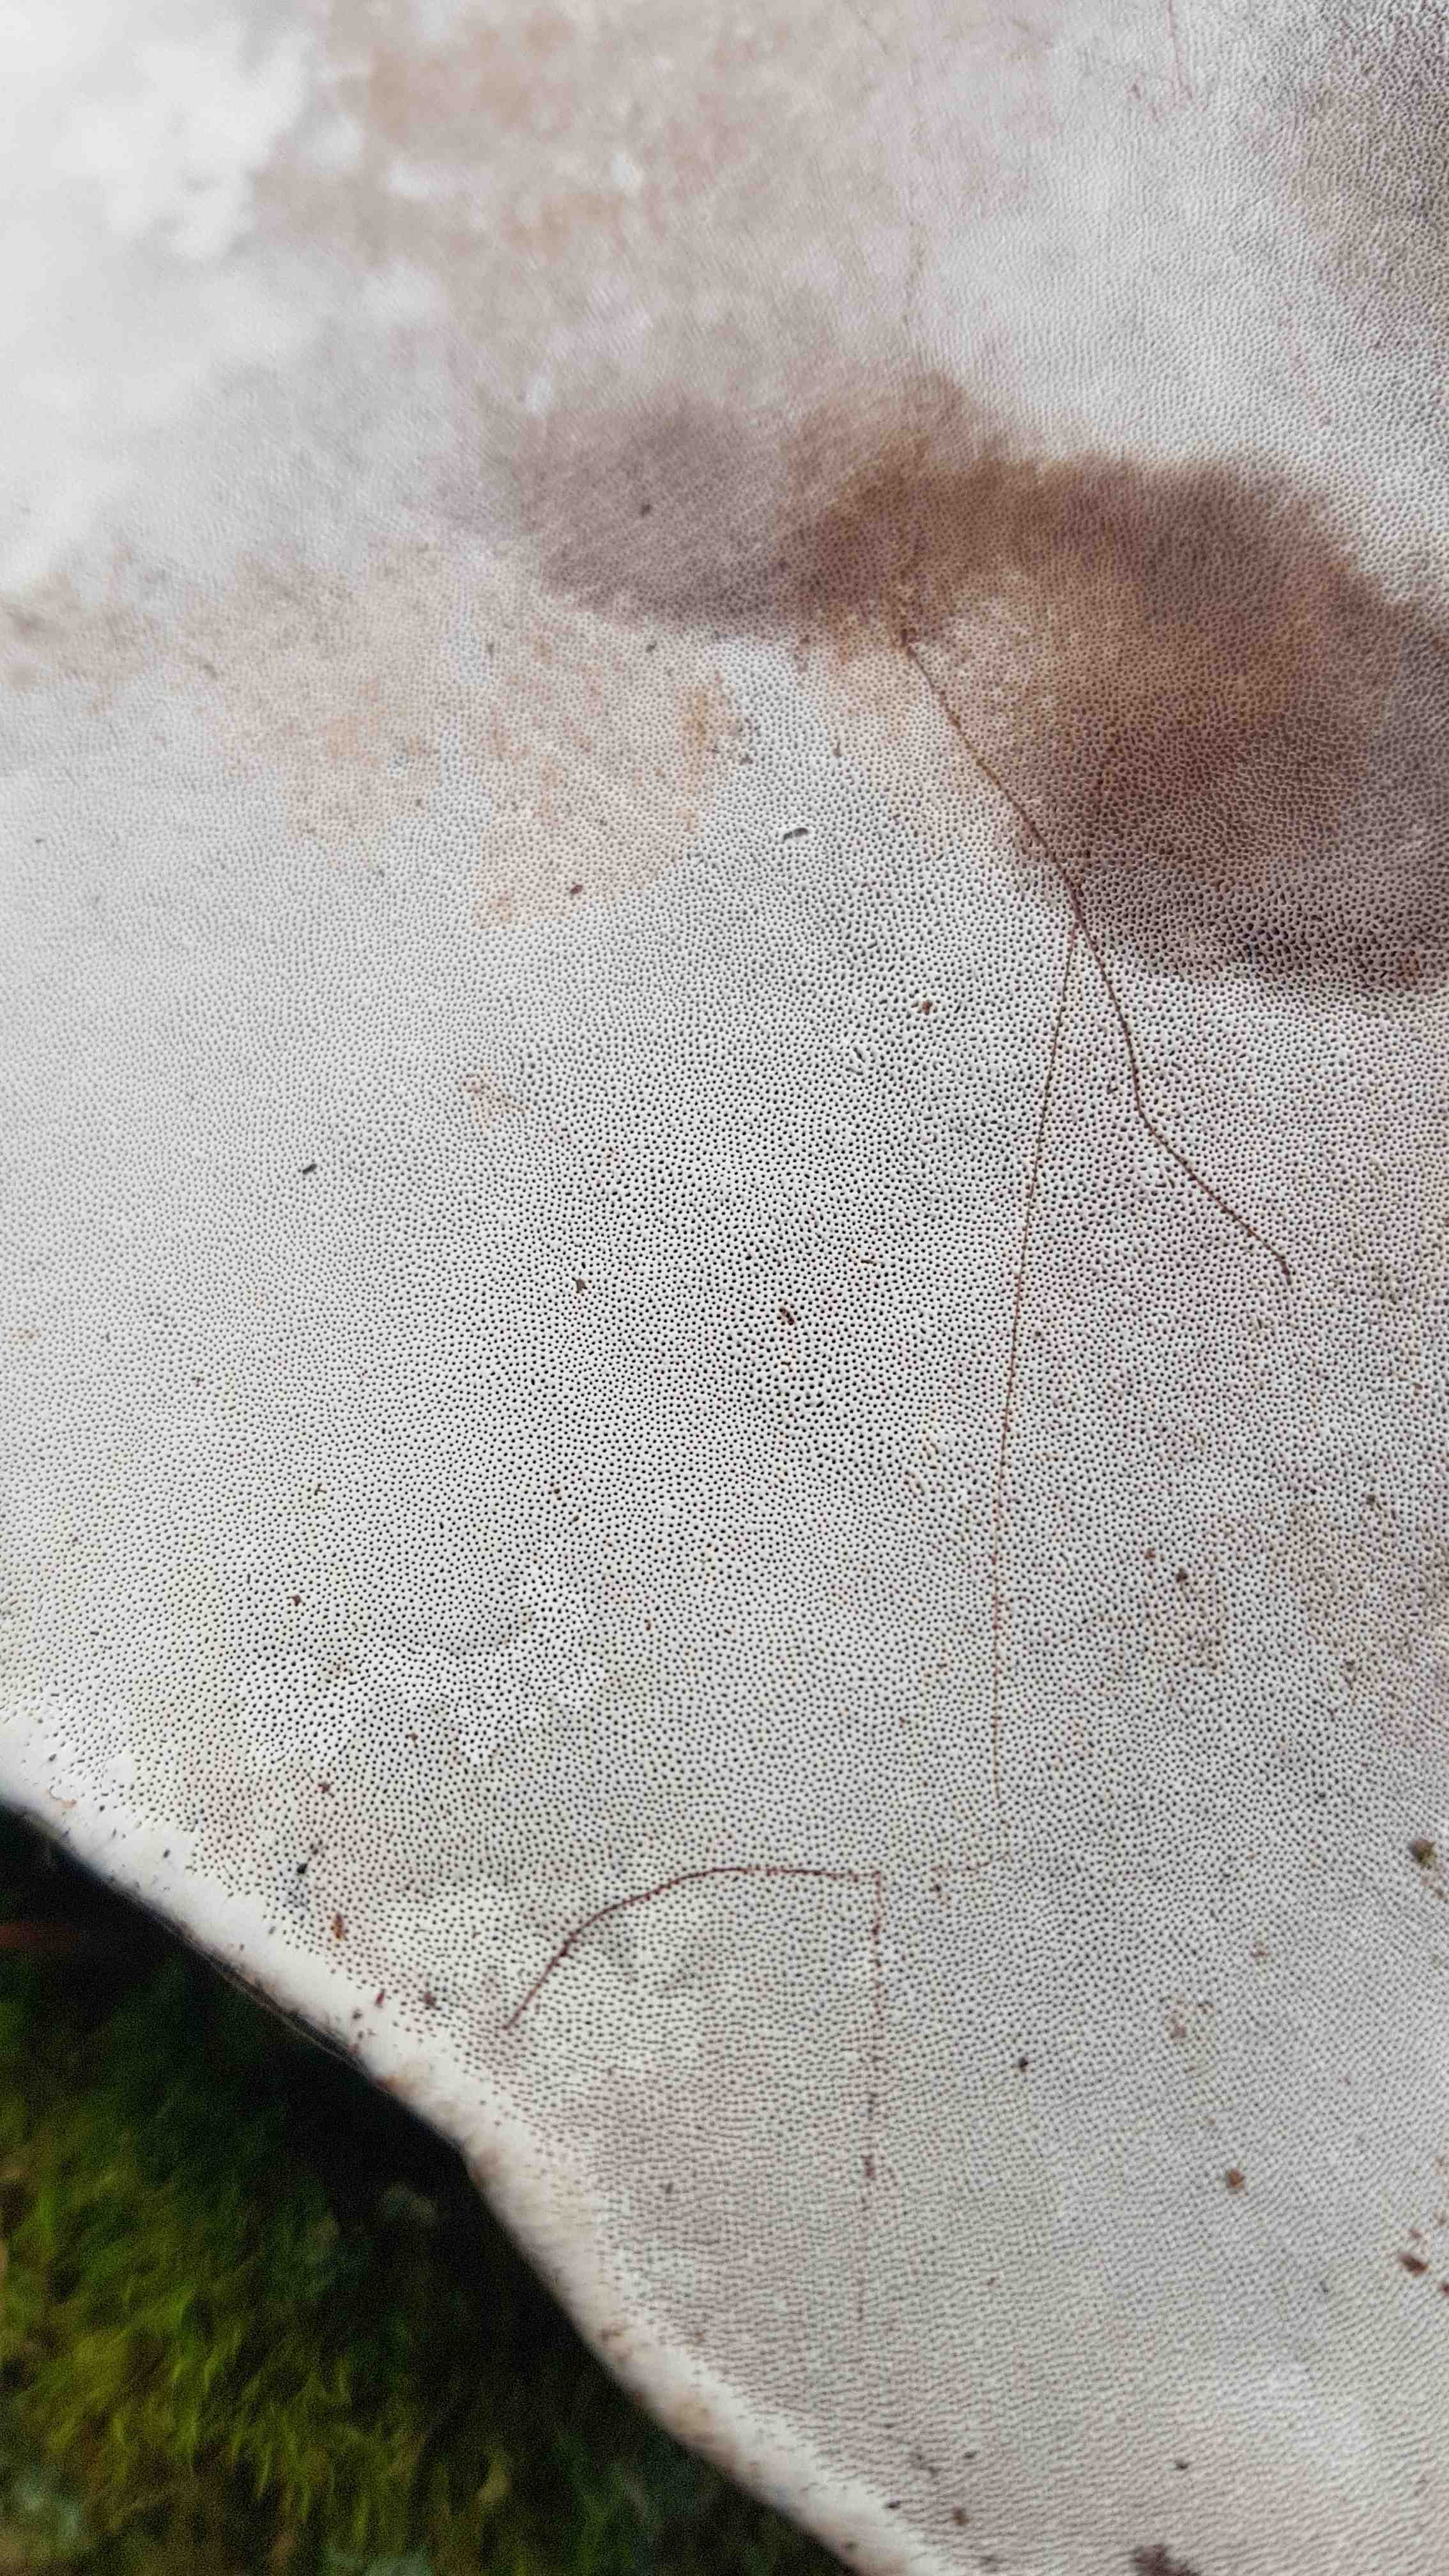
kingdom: Fungi
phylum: Basidiomycota
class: Agaricomycetes
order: Polyporales
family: Polyporaceae
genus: Ganoderma
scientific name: Ganoderma applanatum
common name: flad lakporesvamp
